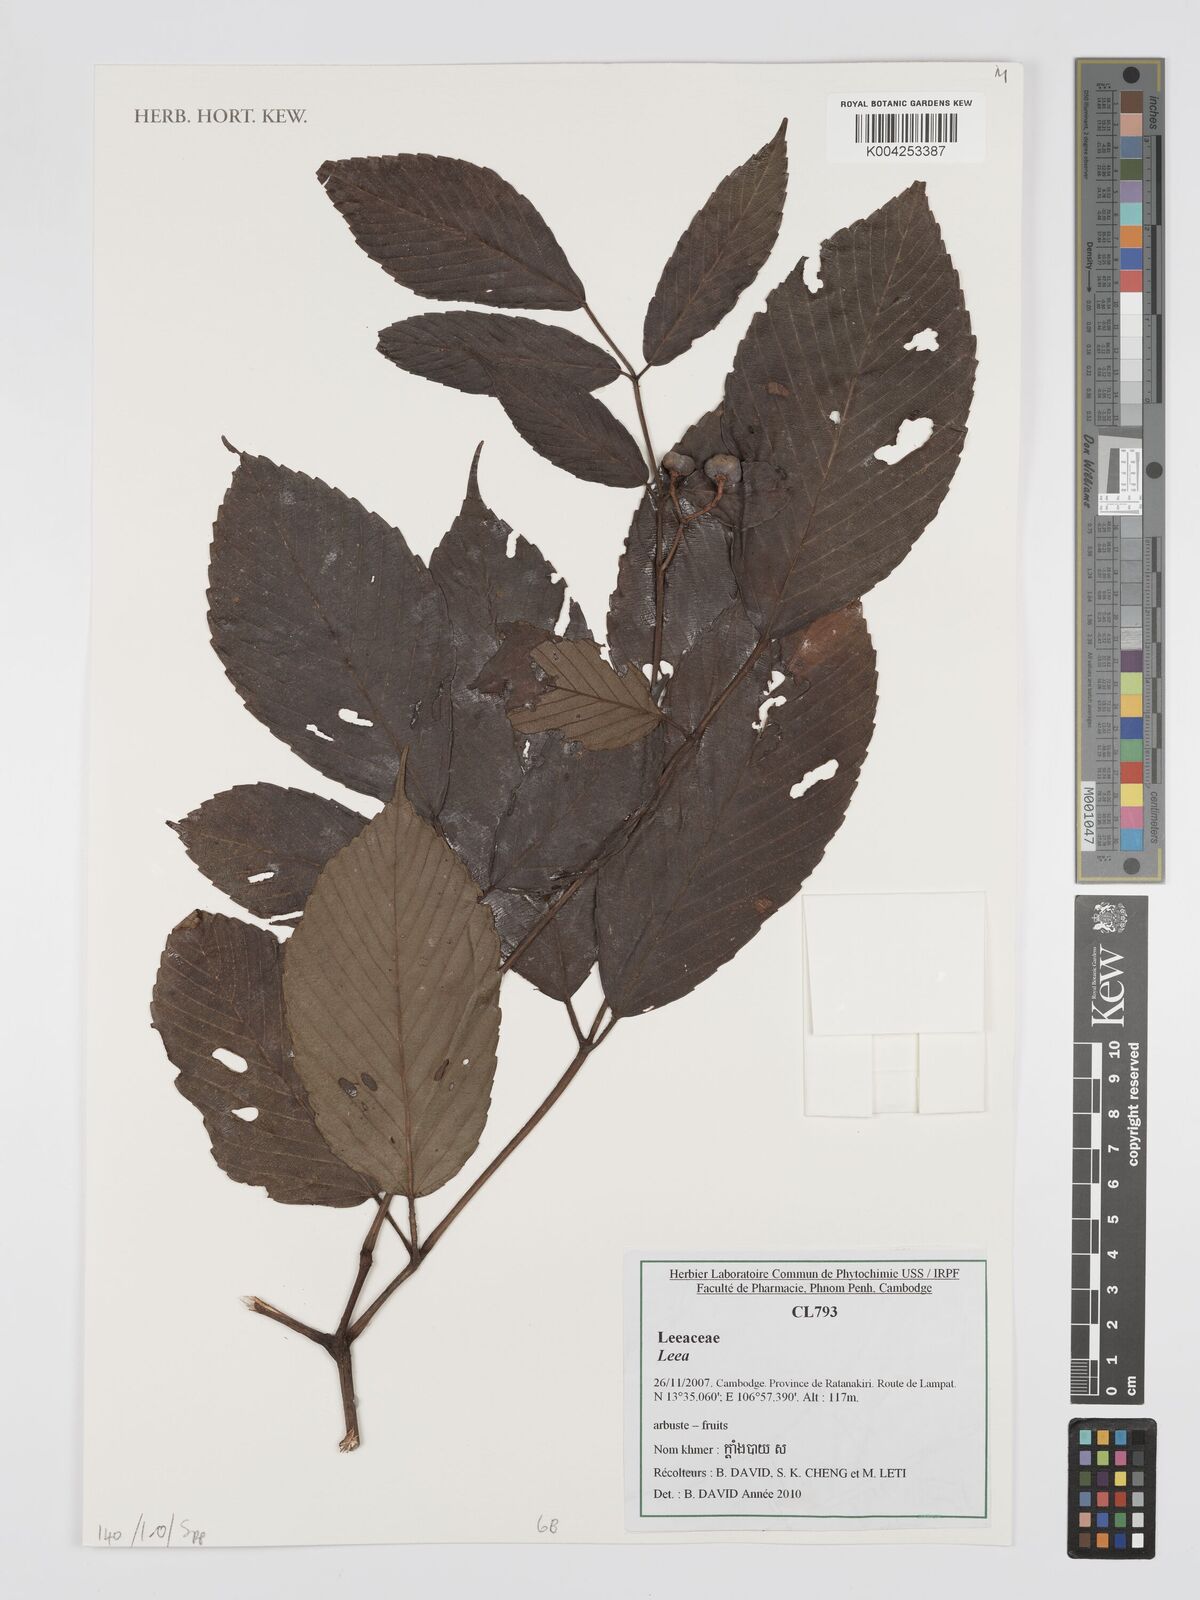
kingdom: Plantae
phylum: Tracheophyta
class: Magnoliopsida
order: Vitales
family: Vitaceae
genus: Leea
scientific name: Leea
